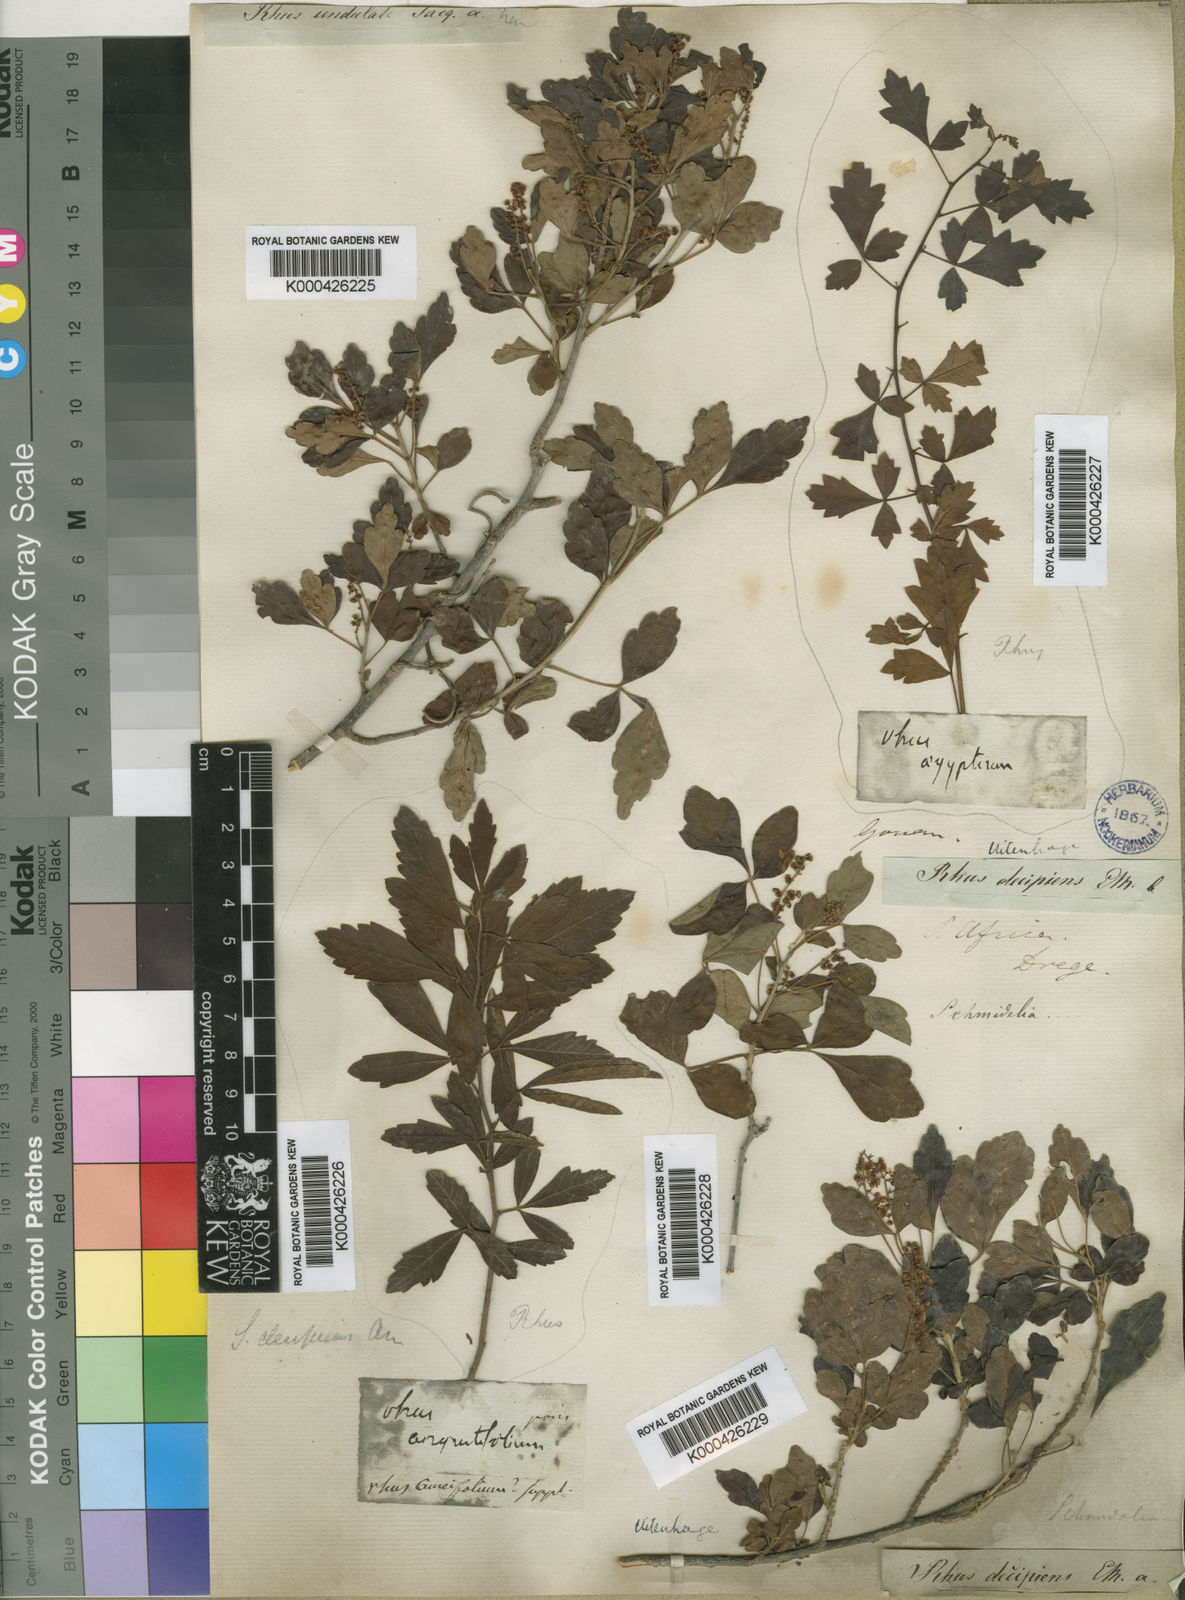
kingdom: Plantae
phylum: Tracheophyta
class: Magnoliopsida
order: Sapindales
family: Sapindaceae
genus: Allophylus
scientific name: Allophylus decipiens
